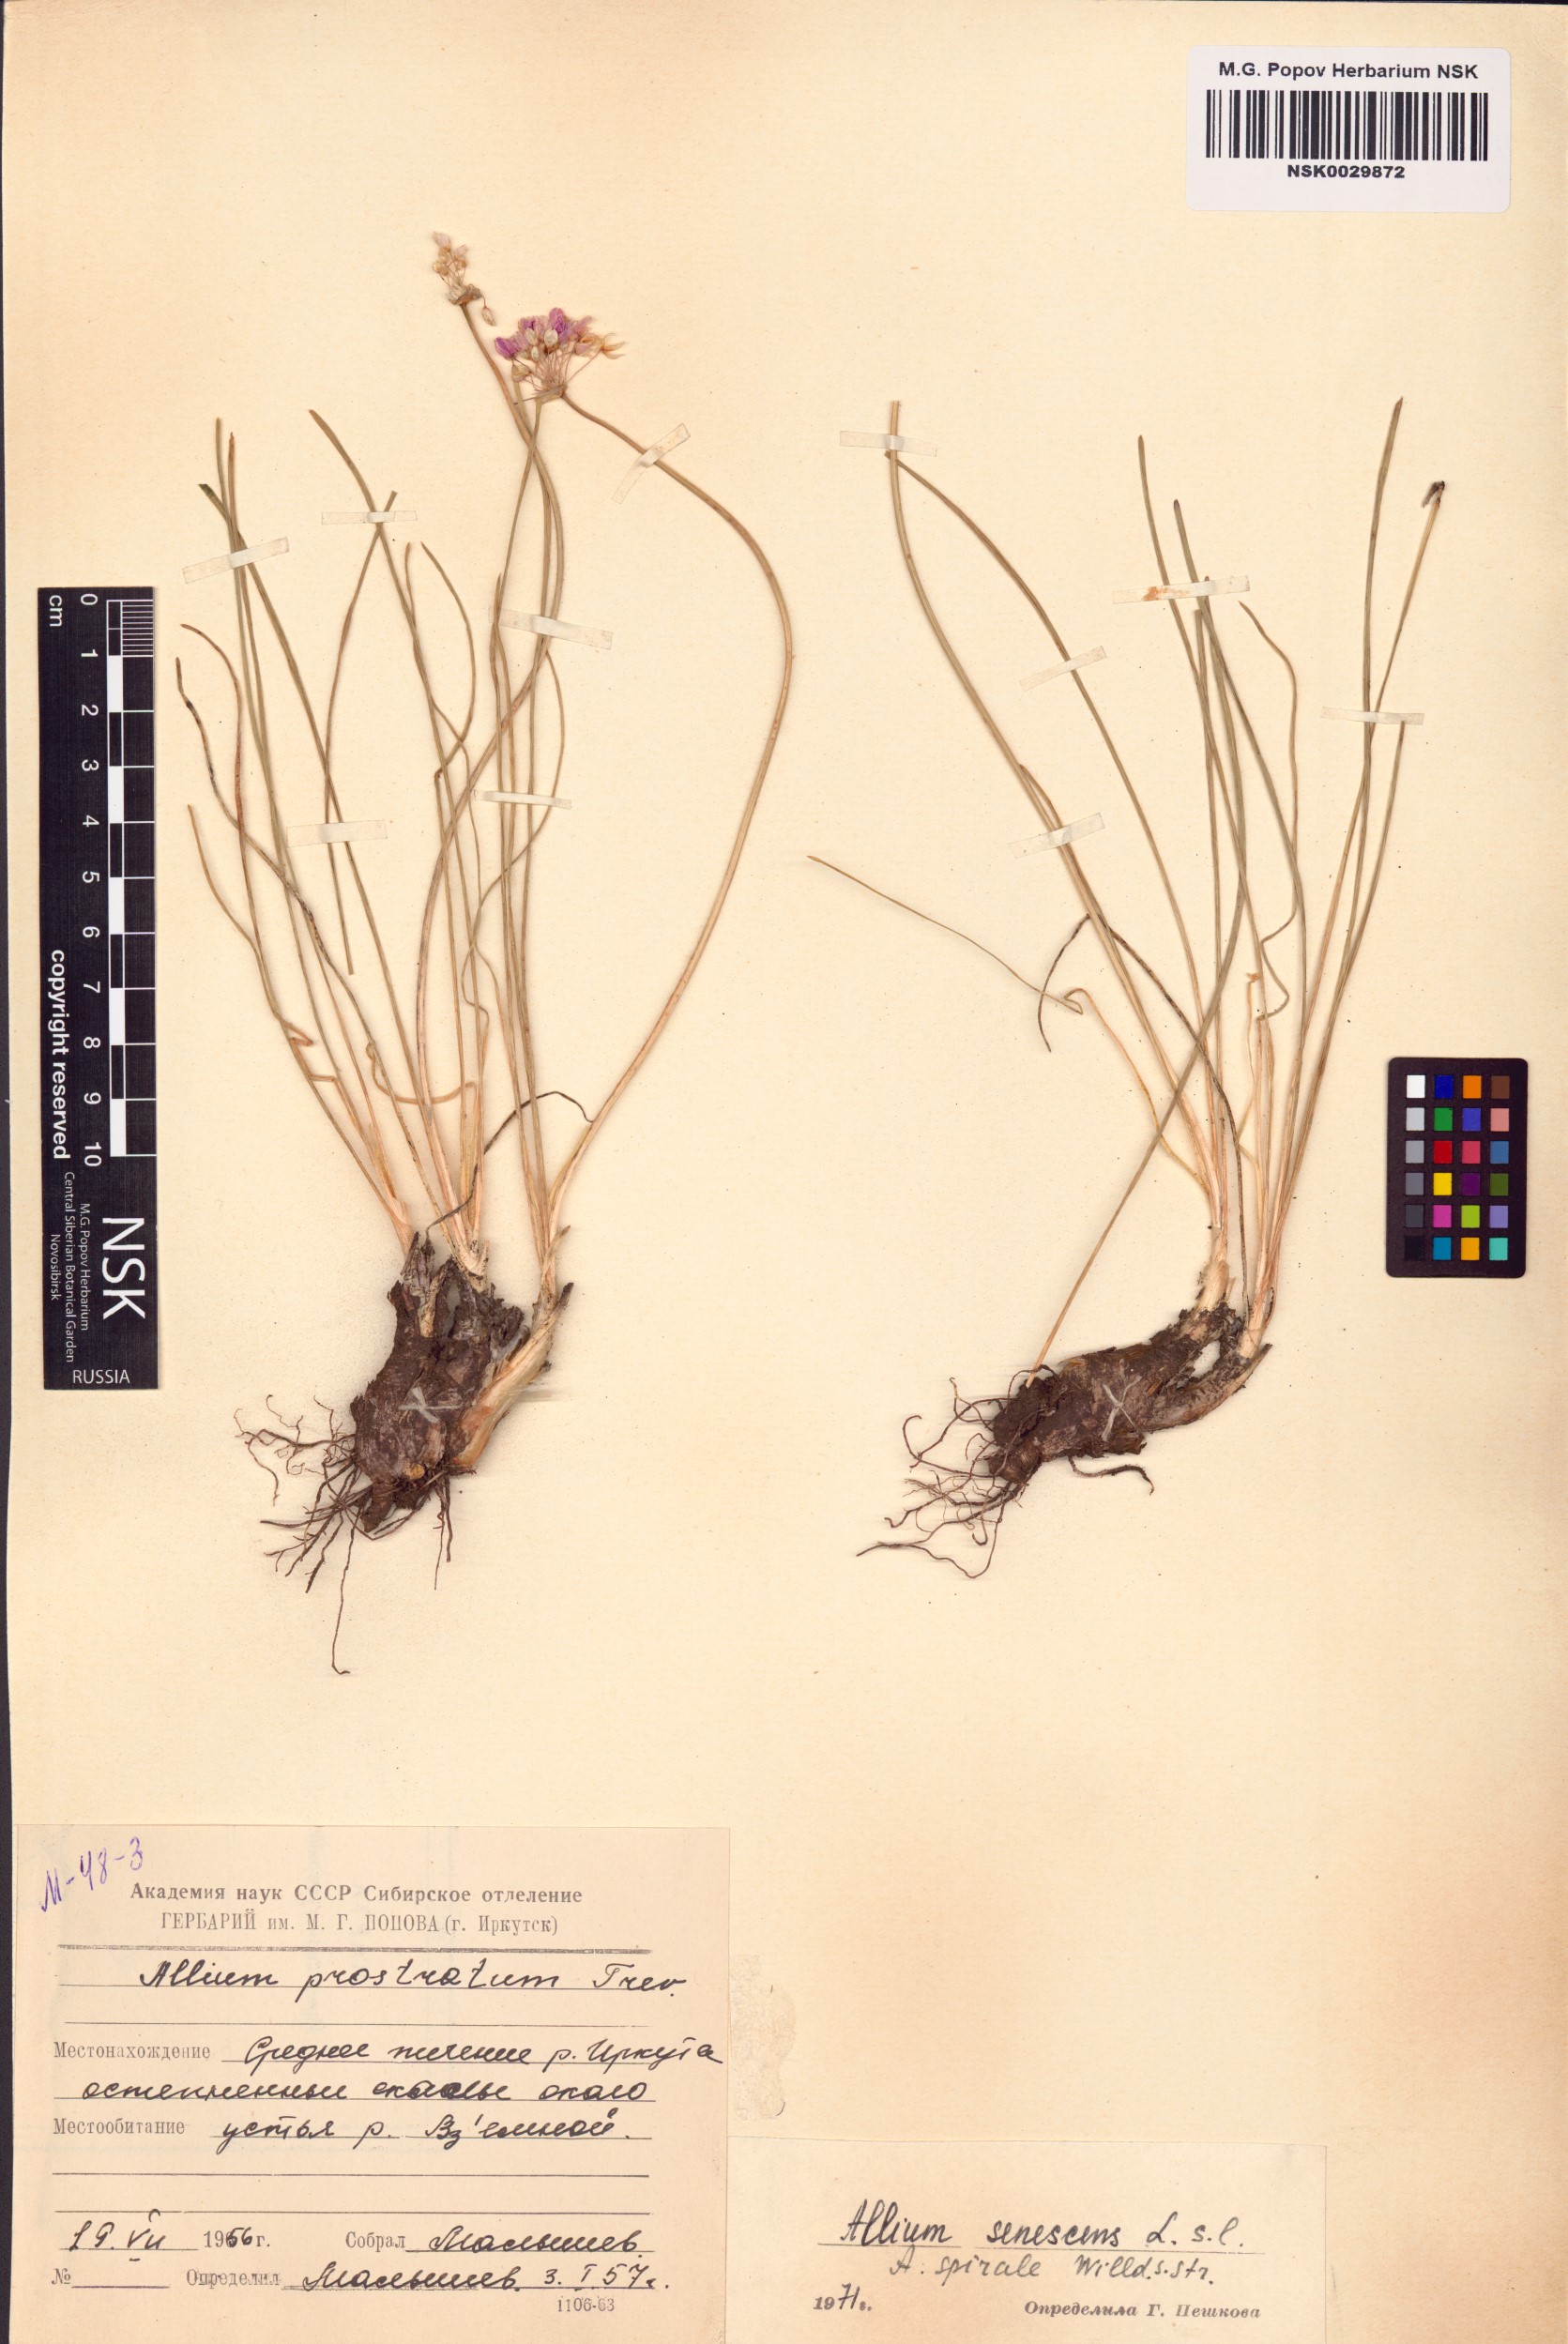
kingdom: Plantae
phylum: Tracheophyta
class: Liliopsida
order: Asparagales
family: Amaryllidaceae
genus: Allium
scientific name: Allium spirale
